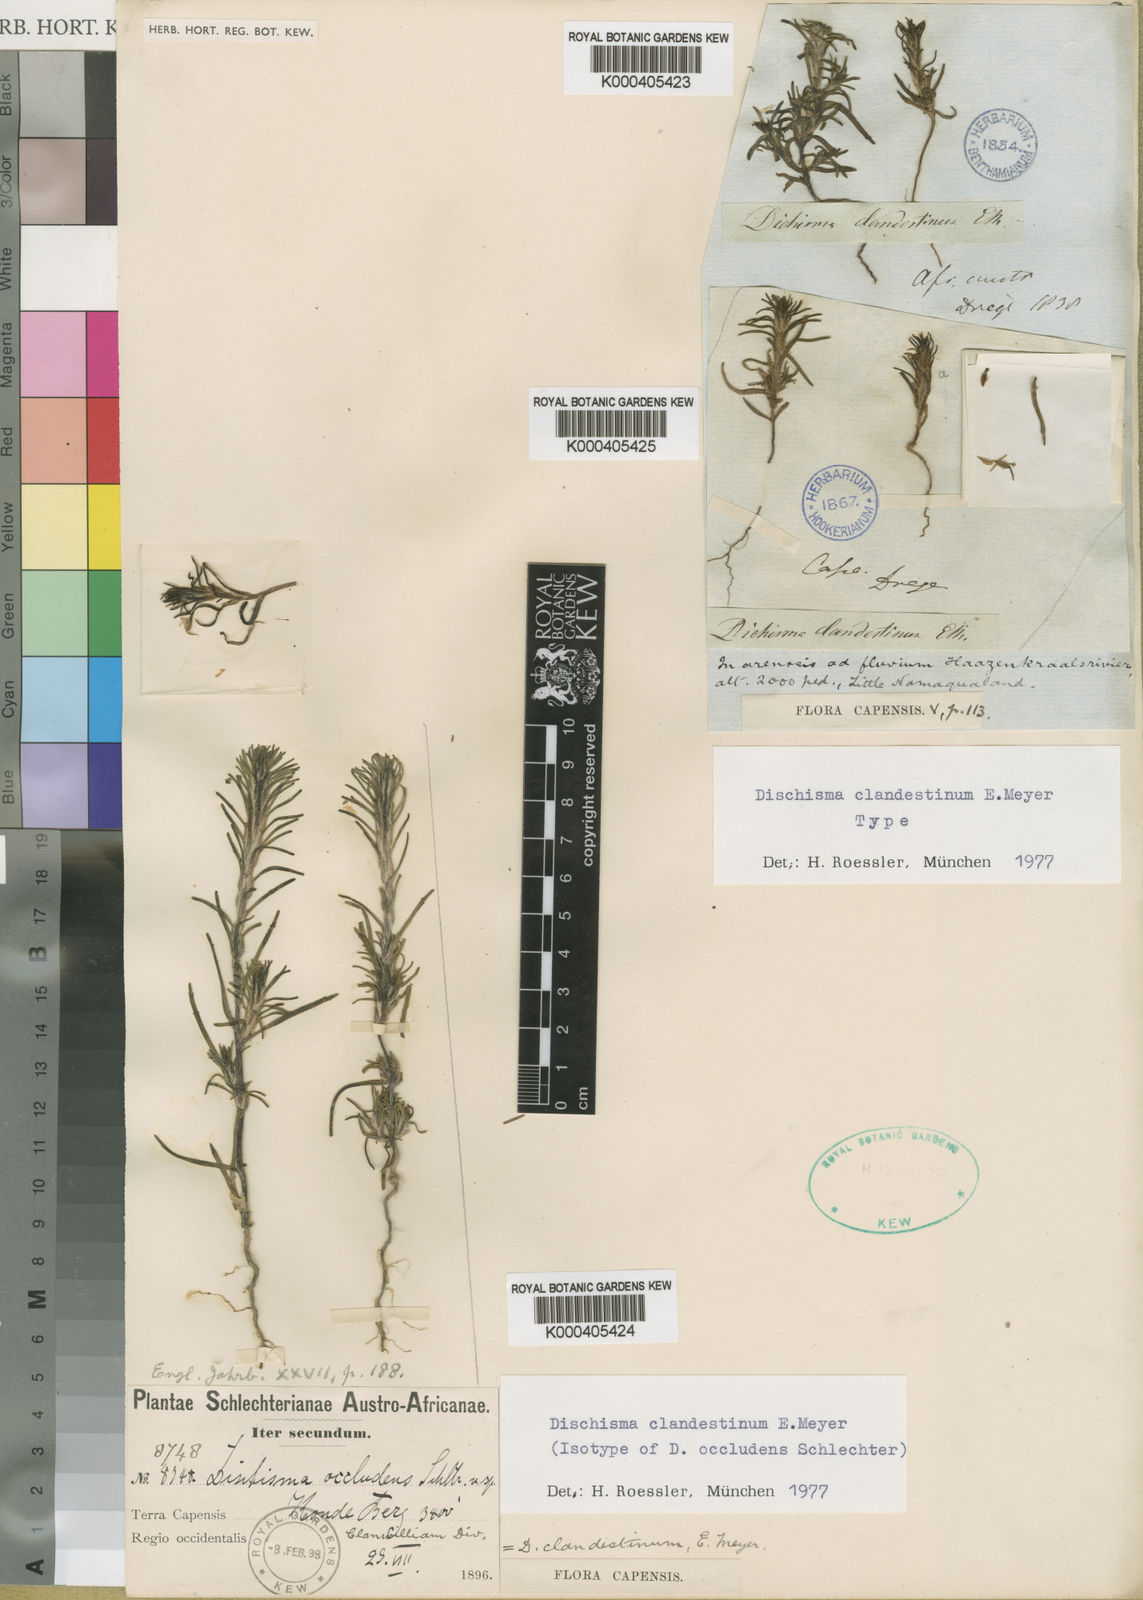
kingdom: Plantae
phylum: Tracheophyta
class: Magnoliopsida
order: Lamiales
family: Scrophulariaceae
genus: Dischisma
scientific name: Dischisma clandestinum
